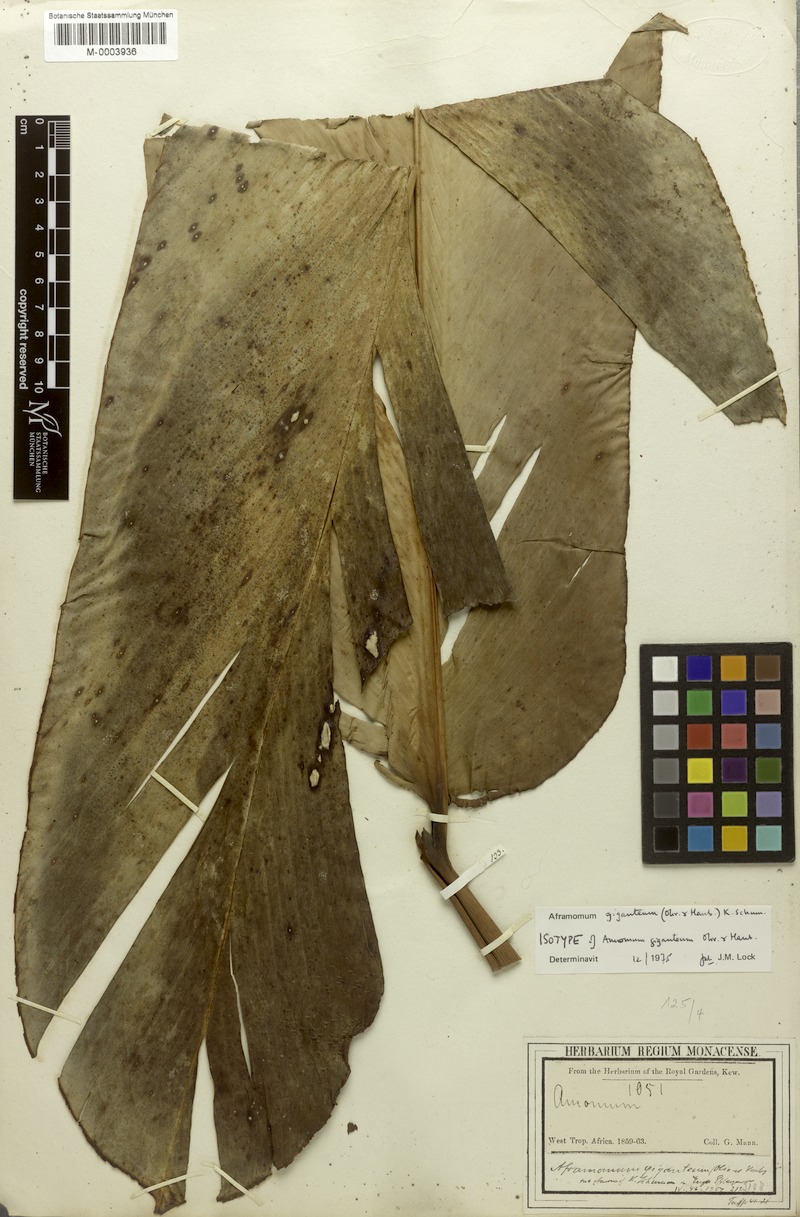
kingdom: Plantae
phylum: Tracheophyta
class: Liliopsida
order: Zingiberales
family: Zingiberaceae
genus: Aframomum
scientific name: Aframomum giganteum
